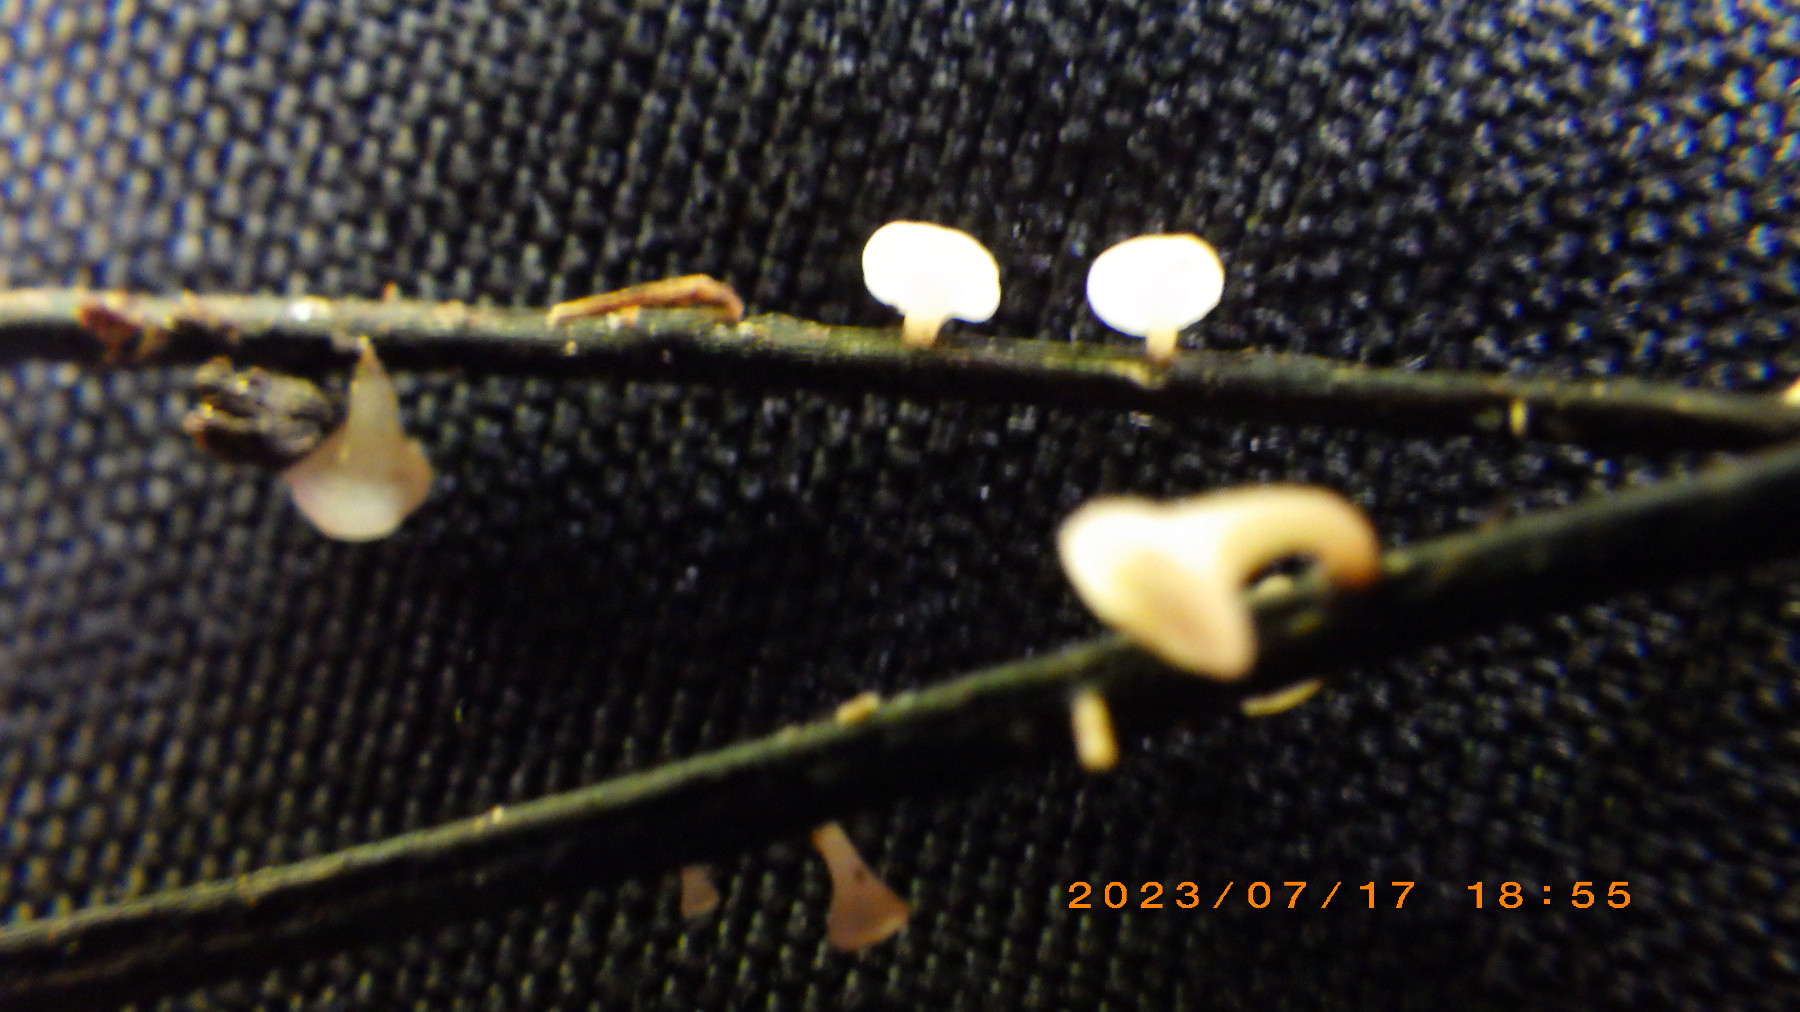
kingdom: Fungi
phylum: Ascomycota
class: Leotiomycetes
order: Helotiales
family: Helotiaceae
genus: Hymenoscyphus
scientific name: Hymenoscyphus fraxineus
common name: asketoptørre-stilkskive
